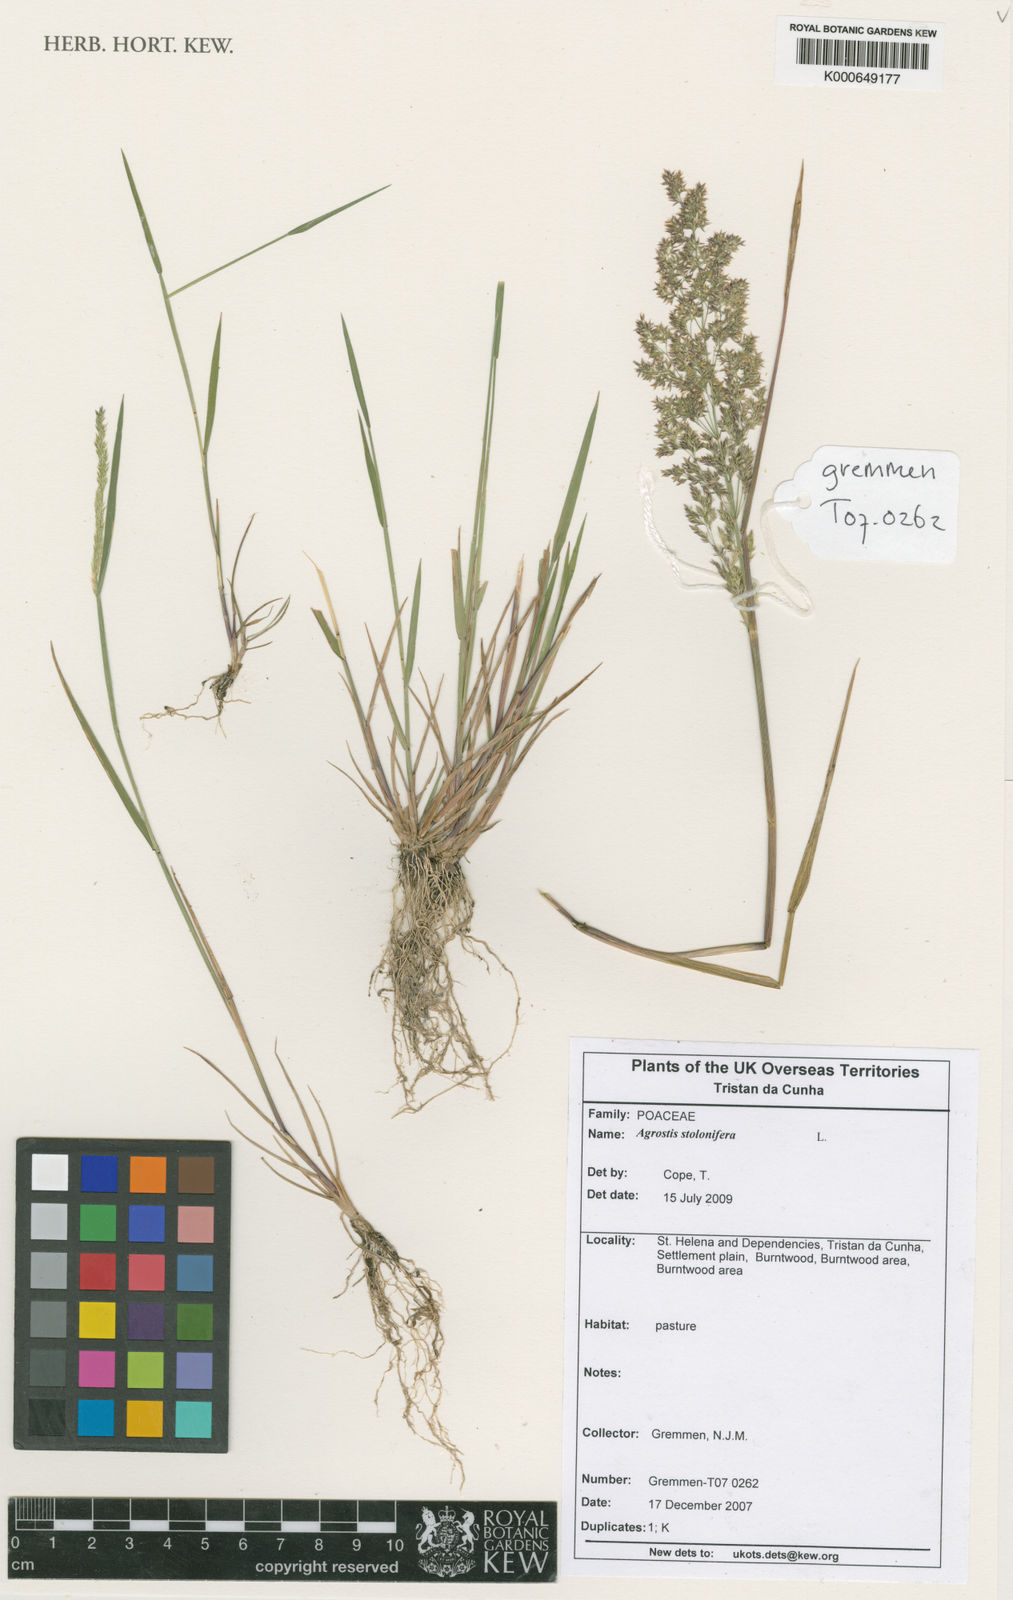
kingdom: Plantae
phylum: Tracheophyta
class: Liliopsida
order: Poales
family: Poaceae
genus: Agrostis
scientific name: Agrostis stolonifera
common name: Creeping bentgrass
